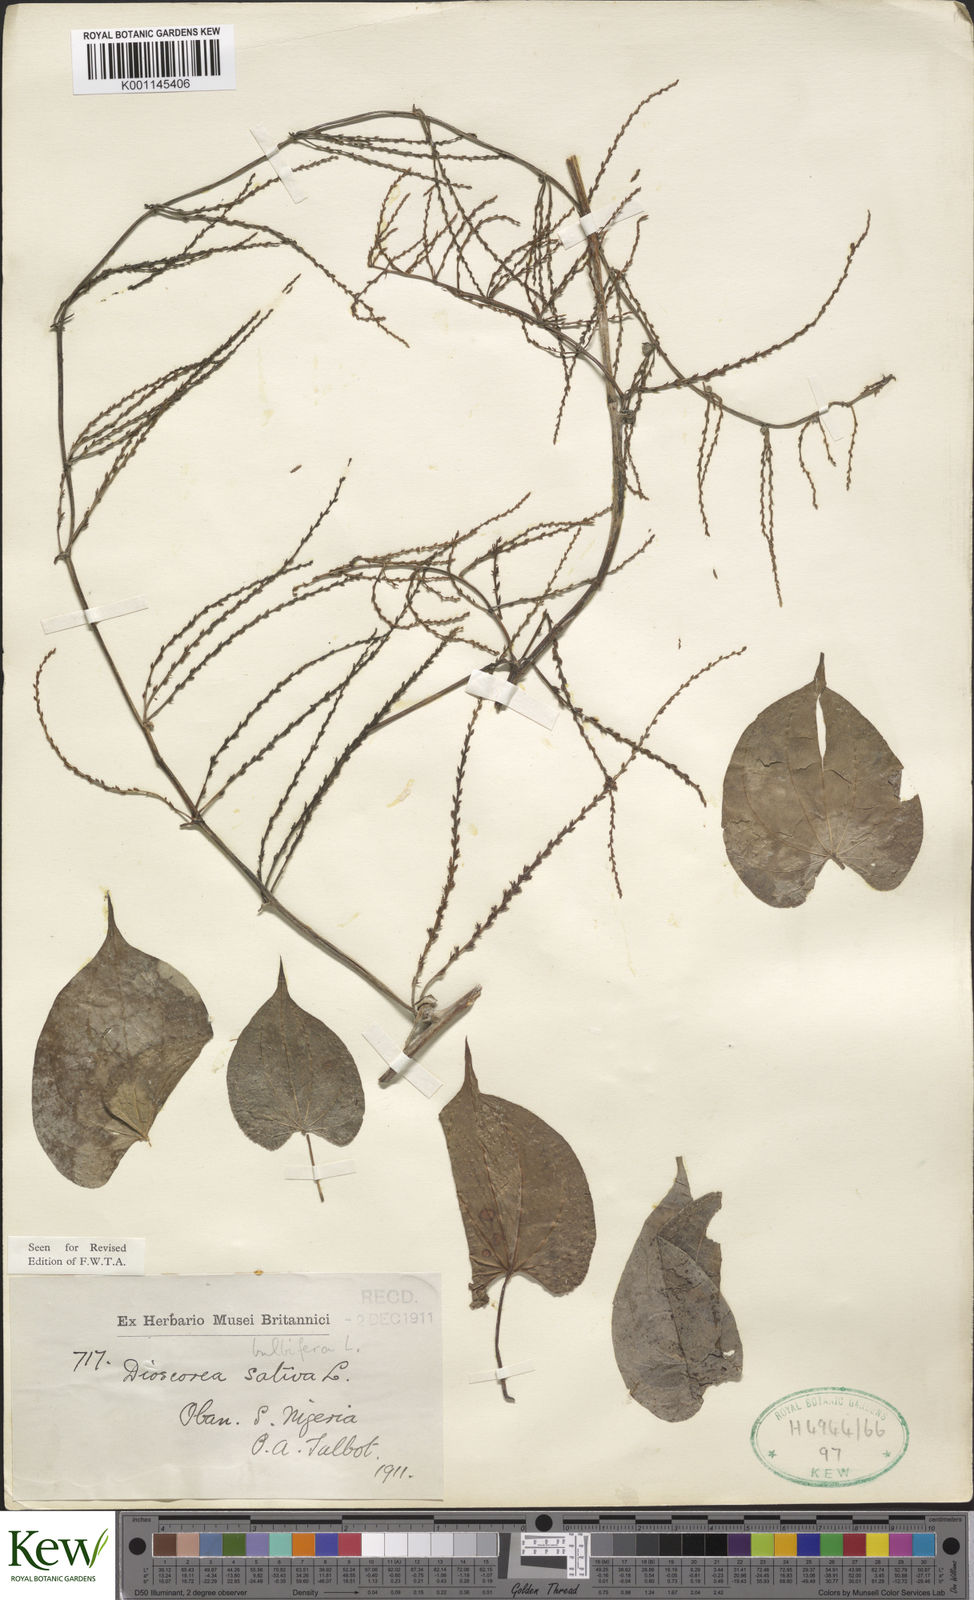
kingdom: Plantae
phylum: Tracheophyta
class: Liliopsida
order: Dioscoreales
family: Dioscoreaceae
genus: Dioscorea
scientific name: Dioscorea bulbifera
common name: Air yam
